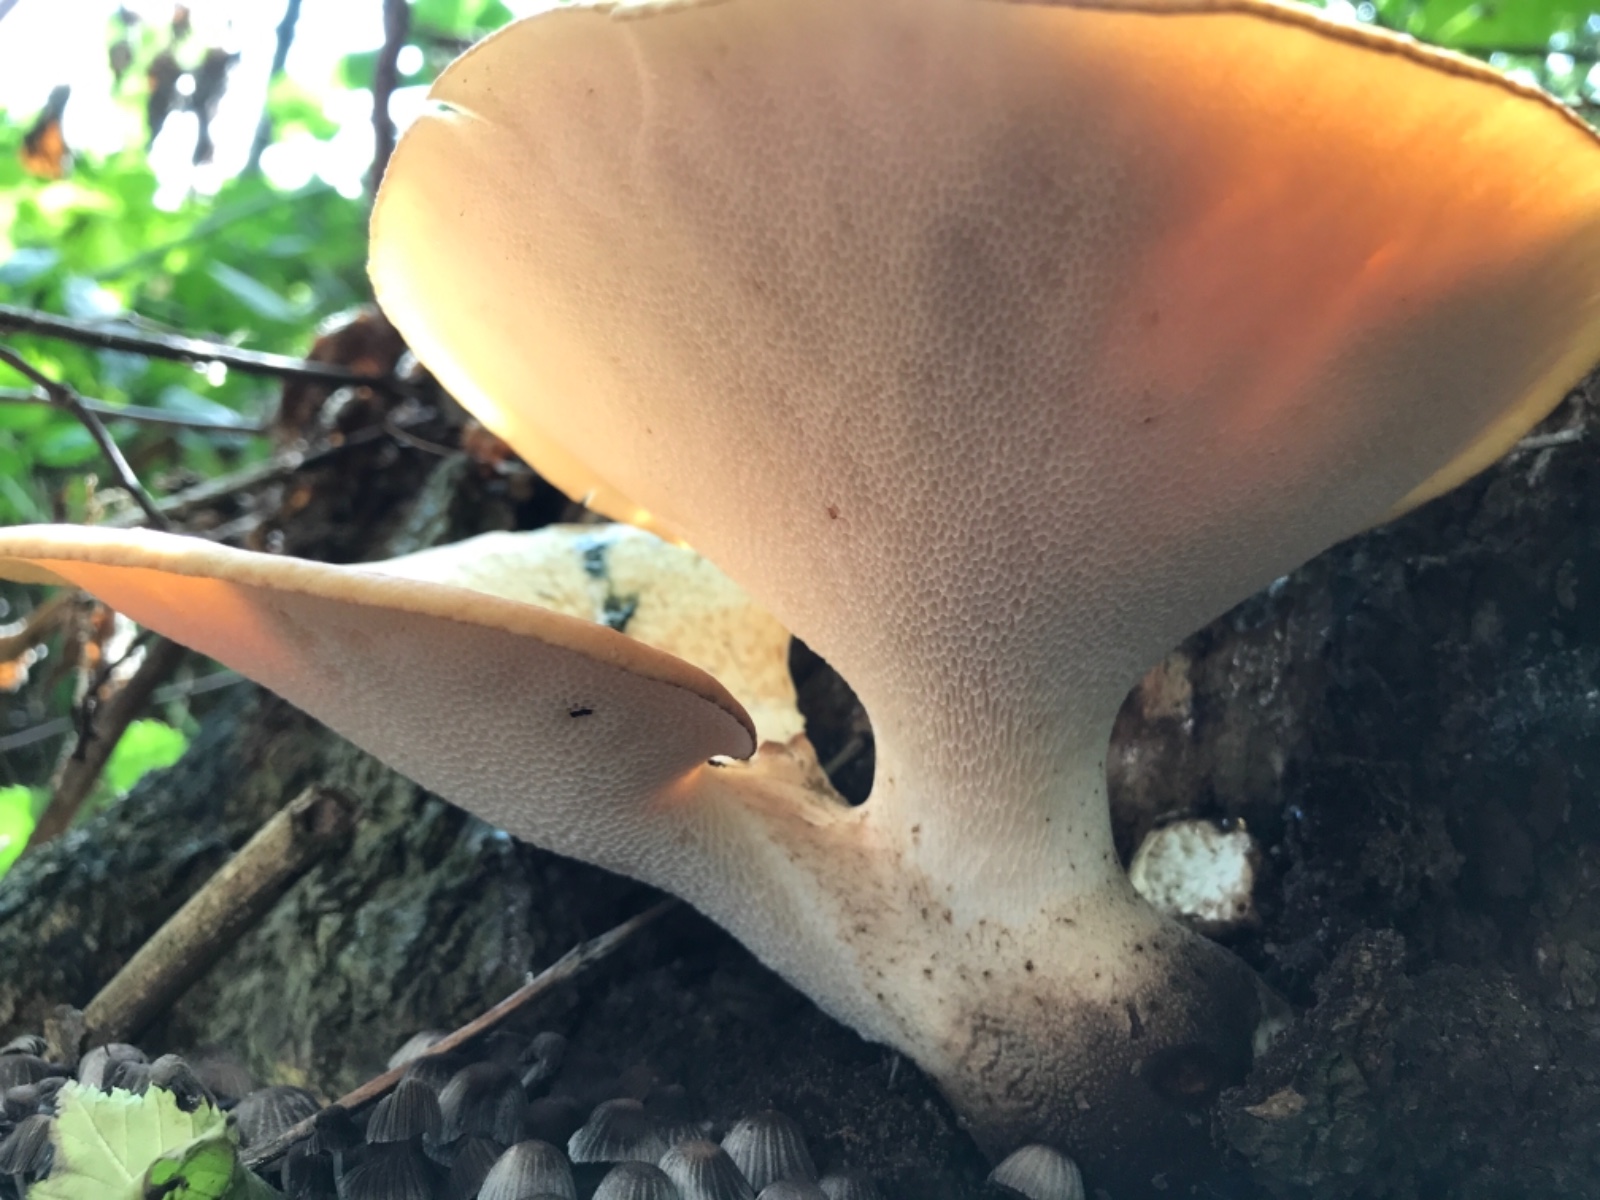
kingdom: Fungi
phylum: Basidiomycota
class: Agaricomycetes
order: Polyporales
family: Polyporaceae
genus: Cerioporus
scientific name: Cerioporus squamosus
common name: skællet stilkporesvamp
